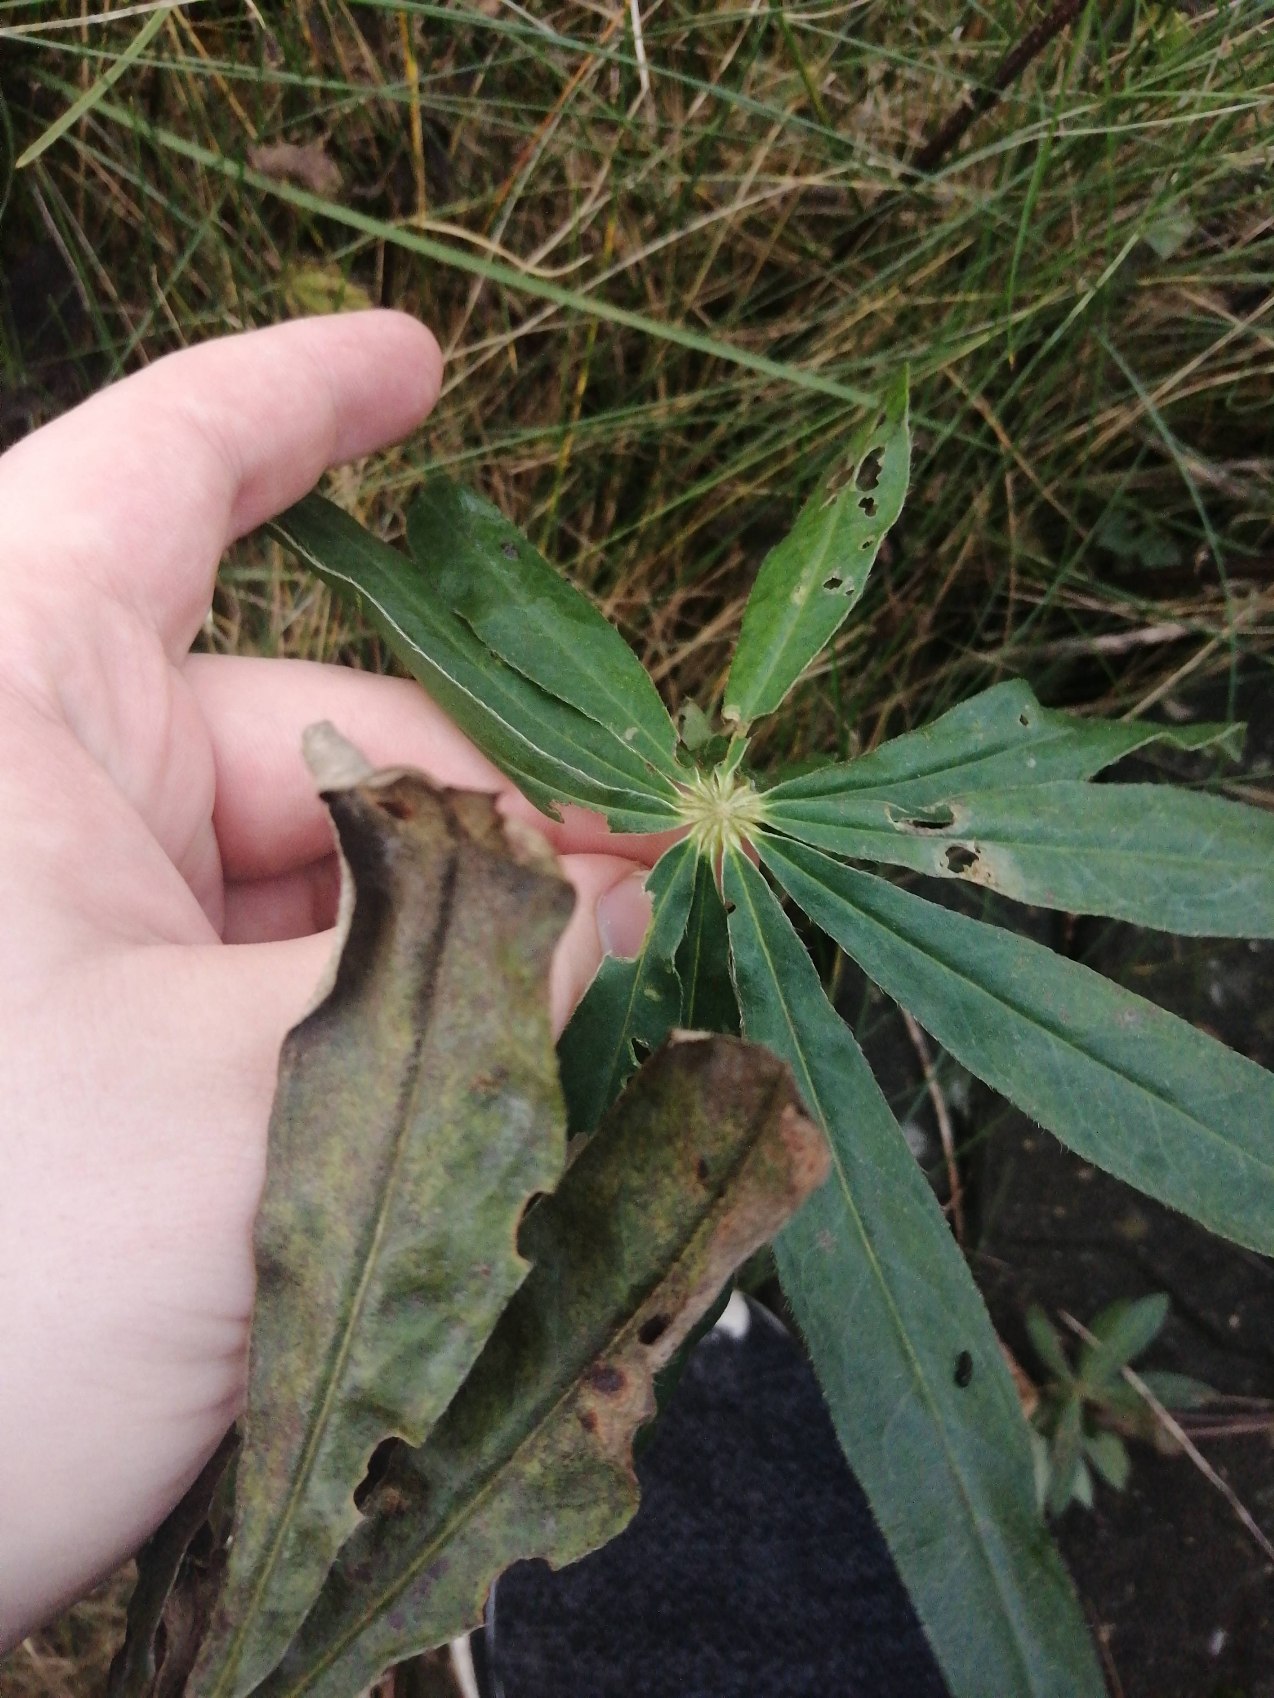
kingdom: Plantae
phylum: Tracheophyta
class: Magnoliopsida
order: Fabales
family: Fabaceae
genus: Lupinus
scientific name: Lupinus polyphyllus
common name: Mangebladet lupin
